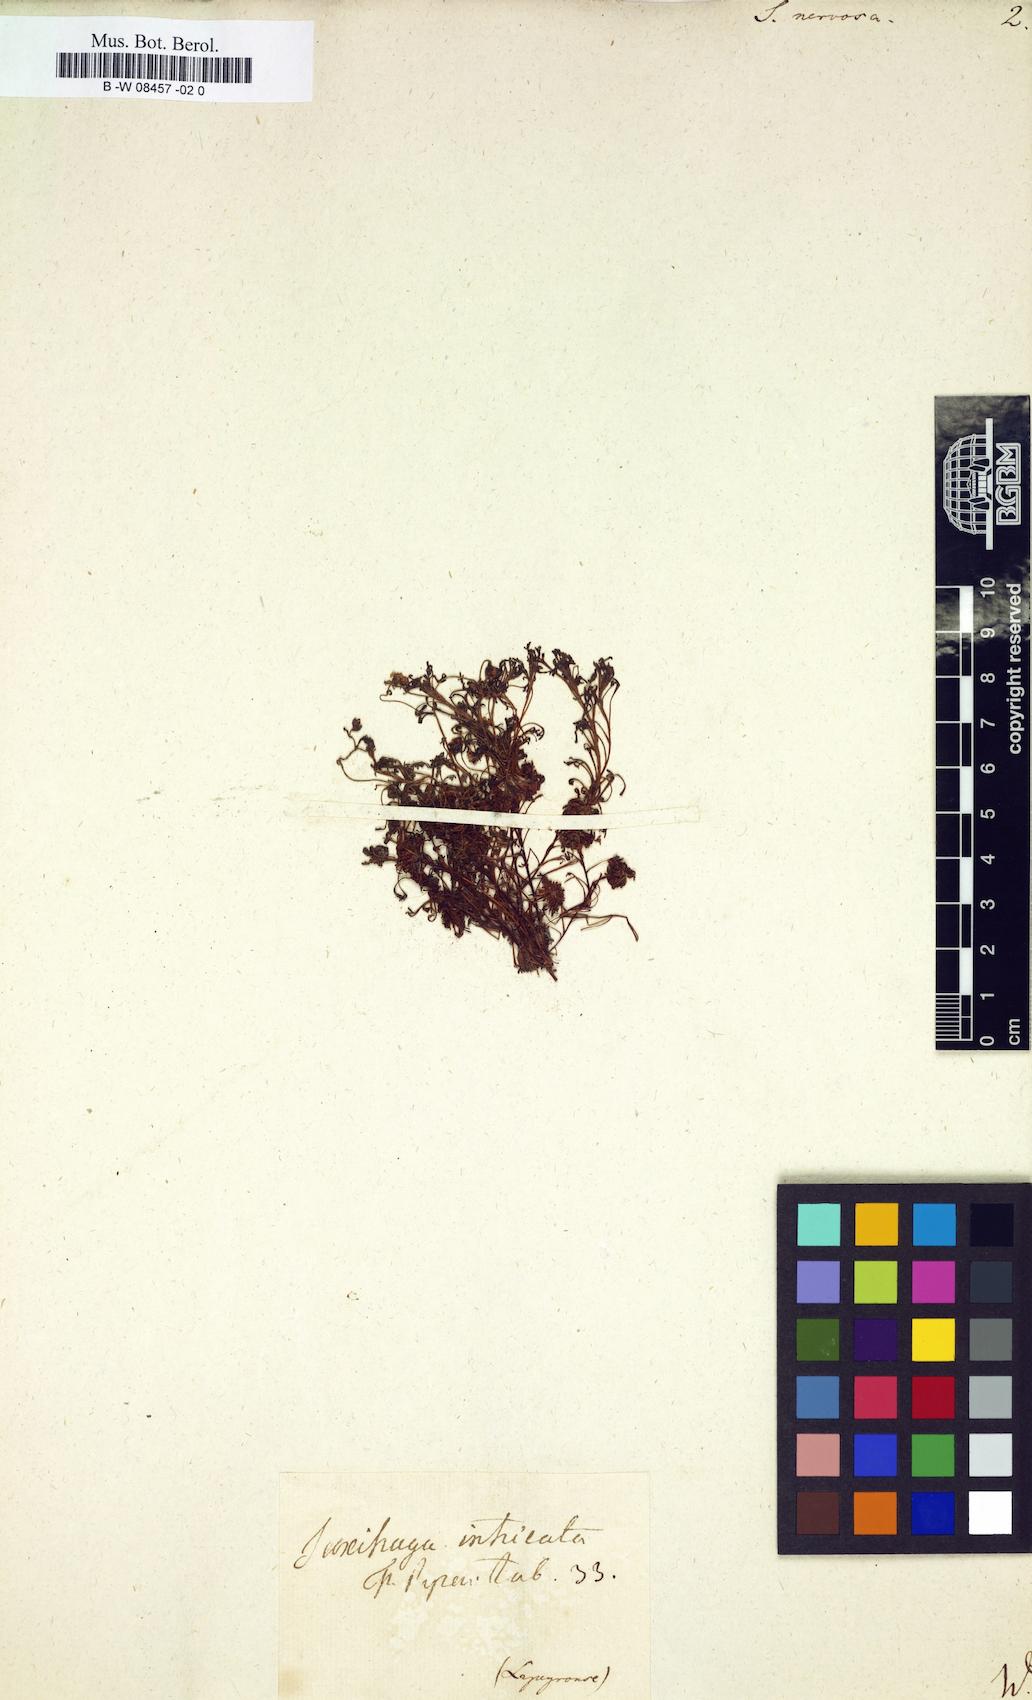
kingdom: Plantae
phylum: Tracheophyta
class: Magnoliopsida
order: Saxifragales
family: Saxifragaceae
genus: Saxifraga
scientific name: Saxifraga
